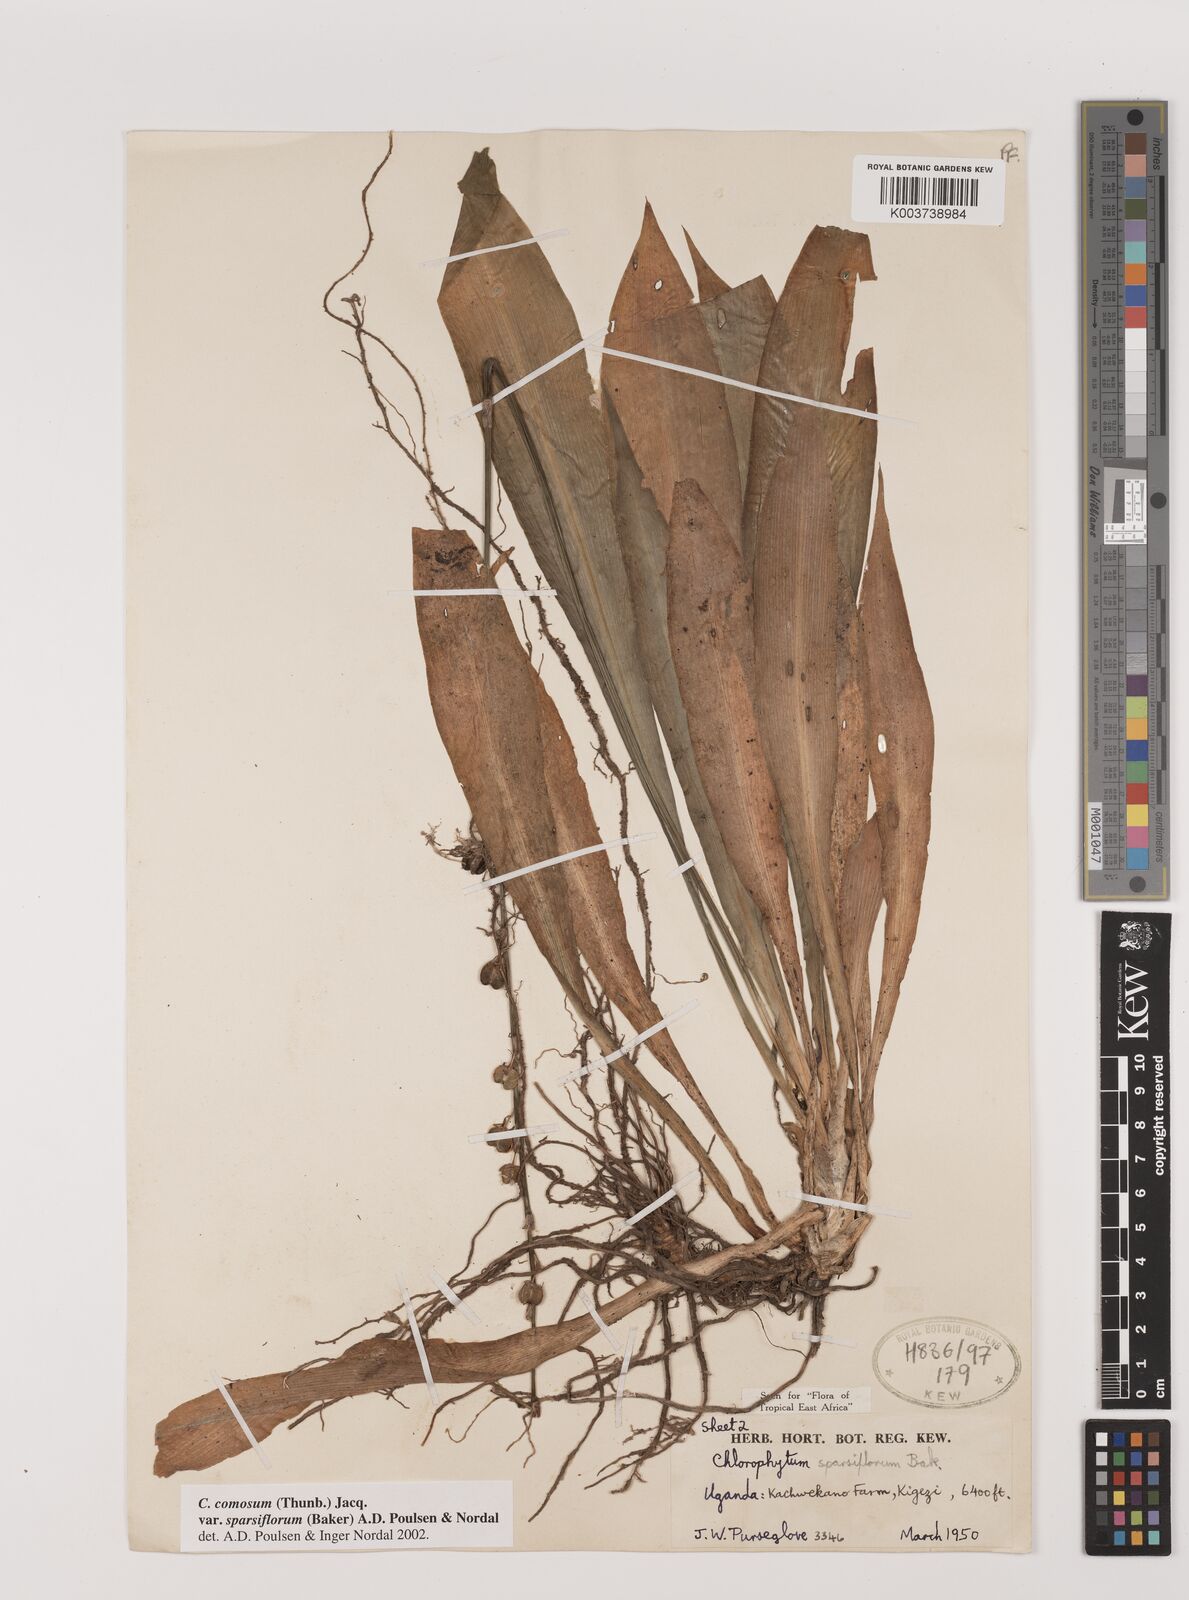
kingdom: Plantae
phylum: Tracheophyta
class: Liliopsida
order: Asparagales
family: Asparagaceae
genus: Chlorophytum
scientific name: Chlorophytum sparsiflorum
